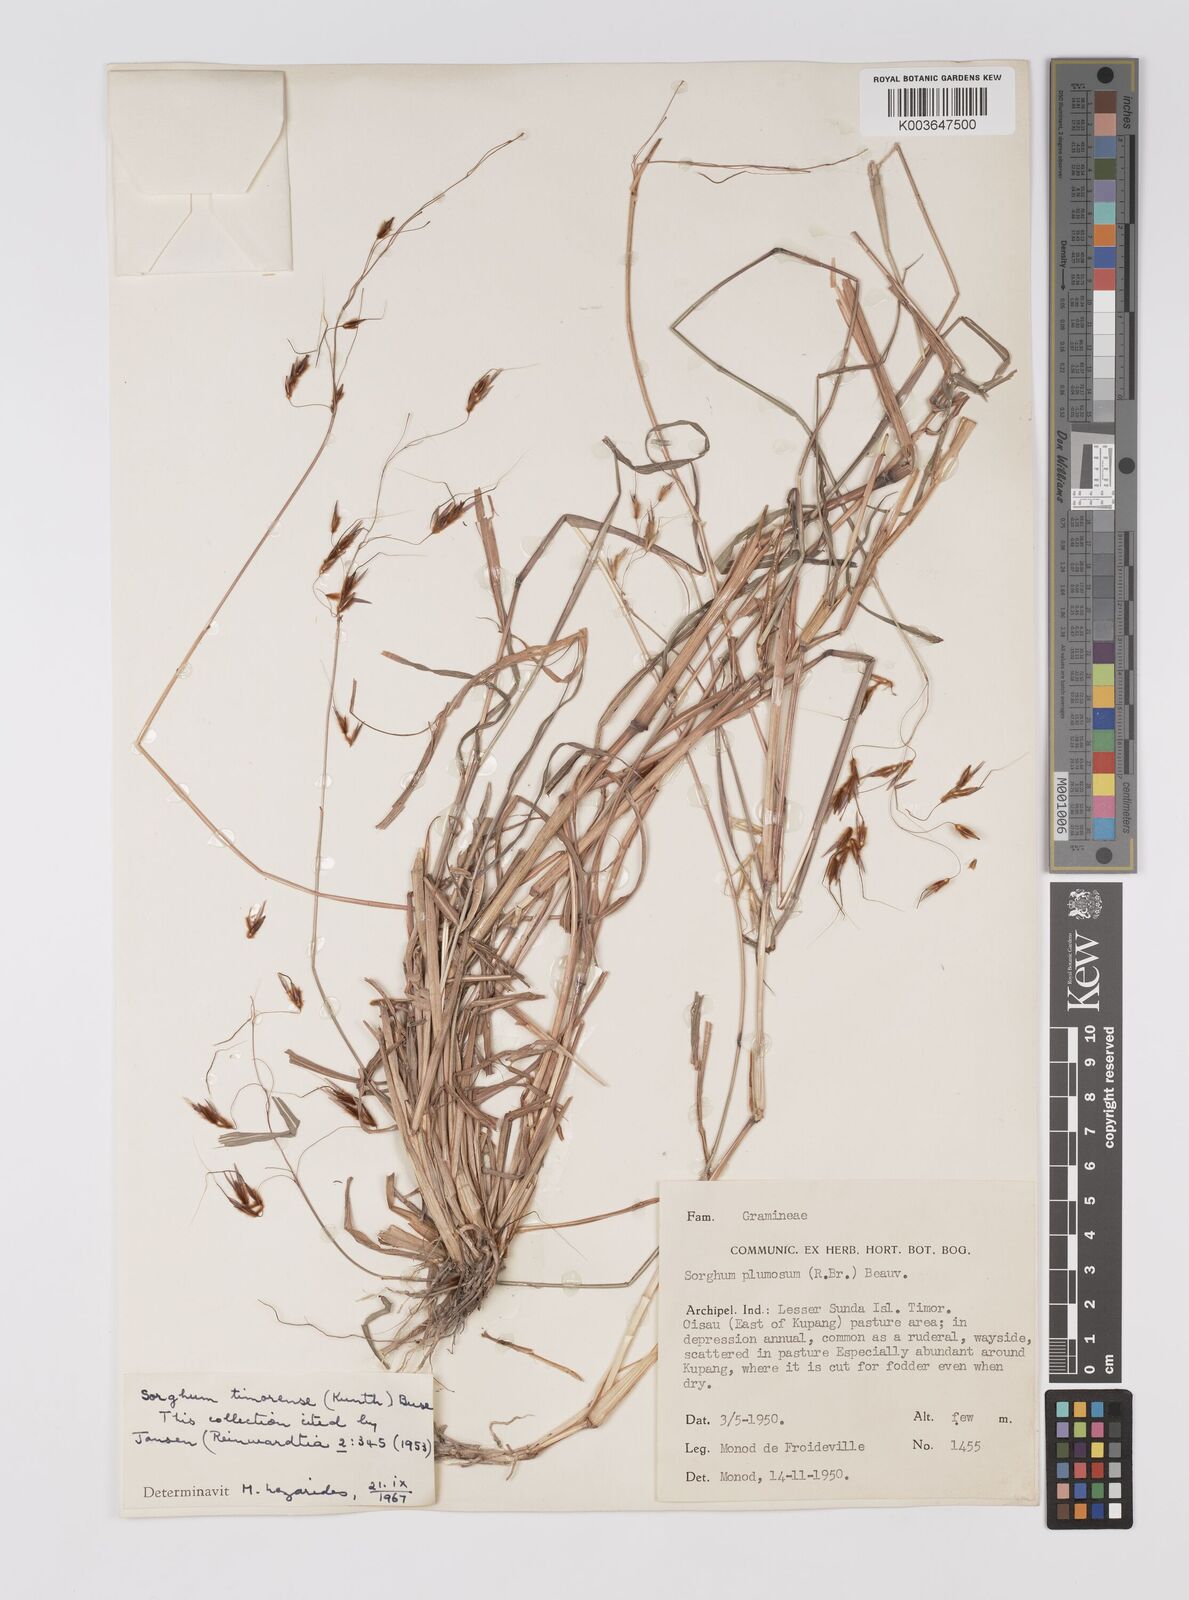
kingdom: Plantae
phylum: Tracheophyta
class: Liliopsida
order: Poales
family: Poaceae
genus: Sarga
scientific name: Sarga timorensis
